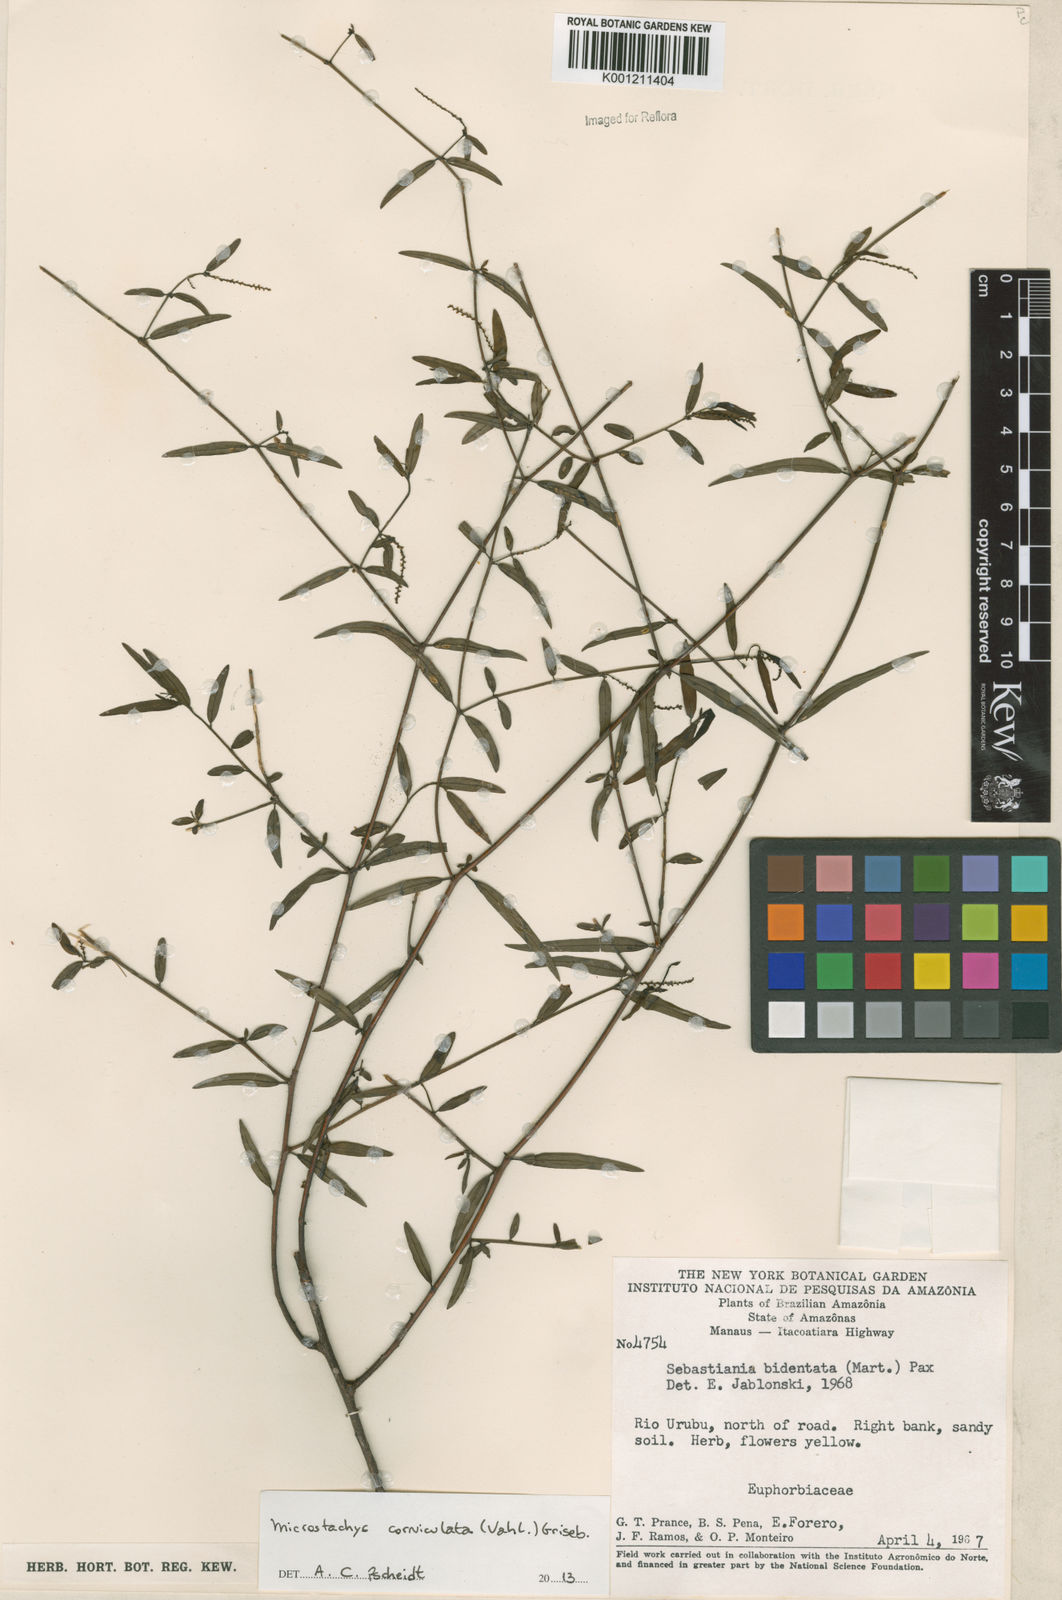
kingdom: Plantae
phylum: Tracheophyta
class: Magnoliopsida
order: Malpighiales
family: Euphorbiaceae
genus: Microstachys
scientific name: Microstachys corniculata
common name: Hato tejas
